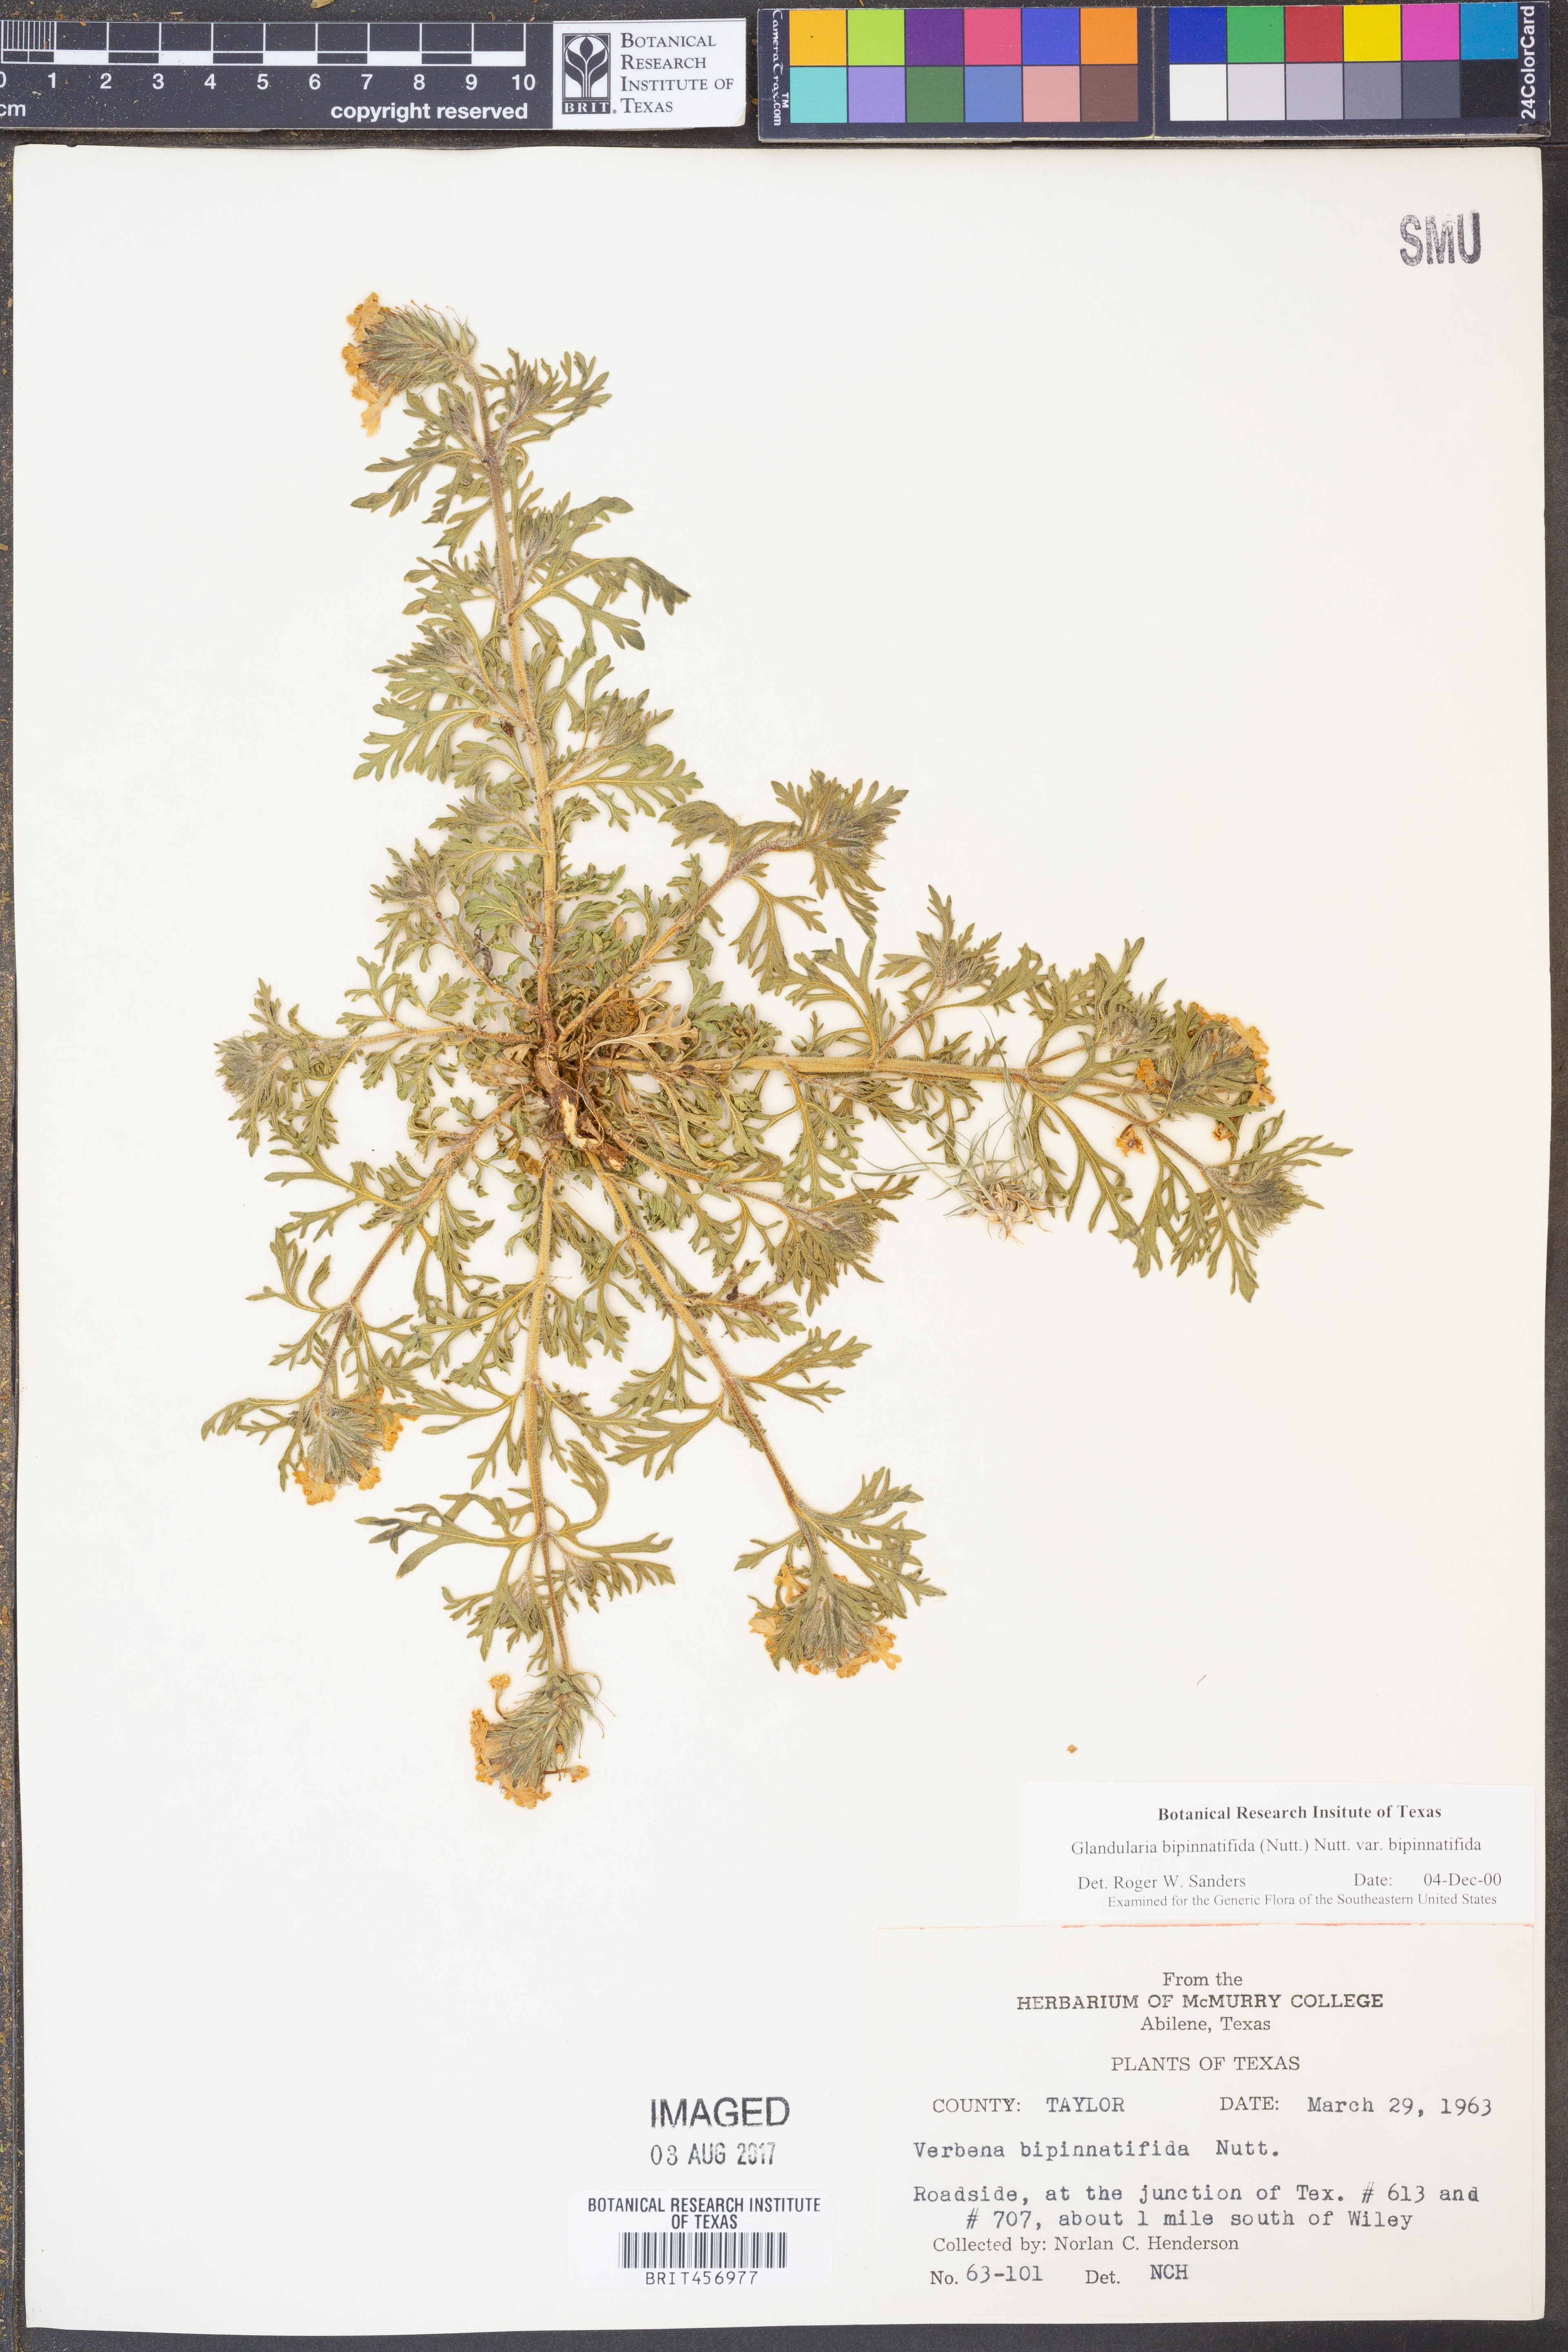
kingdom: Plantae
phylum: Tracheophyta
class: Magnoliopsida
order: Lamiales
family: Verbenaceae
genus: Verbena
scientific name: Verbena bipinnatifida
